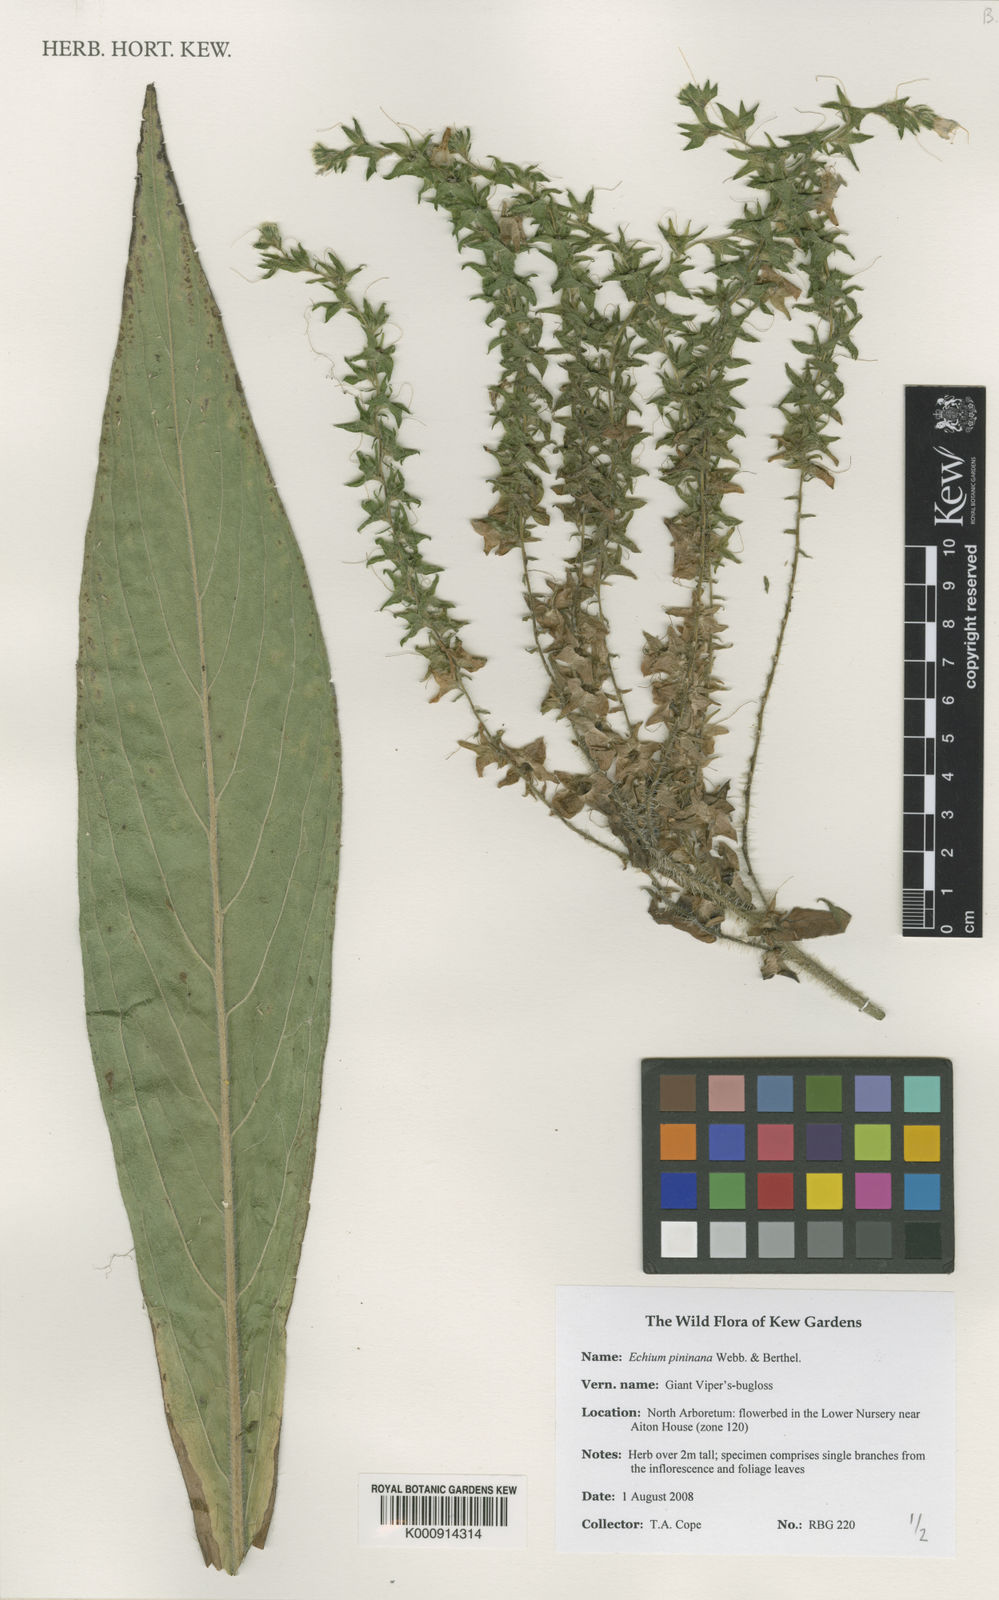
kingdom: Plantae
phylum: Tracheophyta
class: Magnoliopsida
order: Boraginales
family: Boraginaceae
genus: Echium
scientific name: Echium pininana
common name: Giant viper's-bugloss
